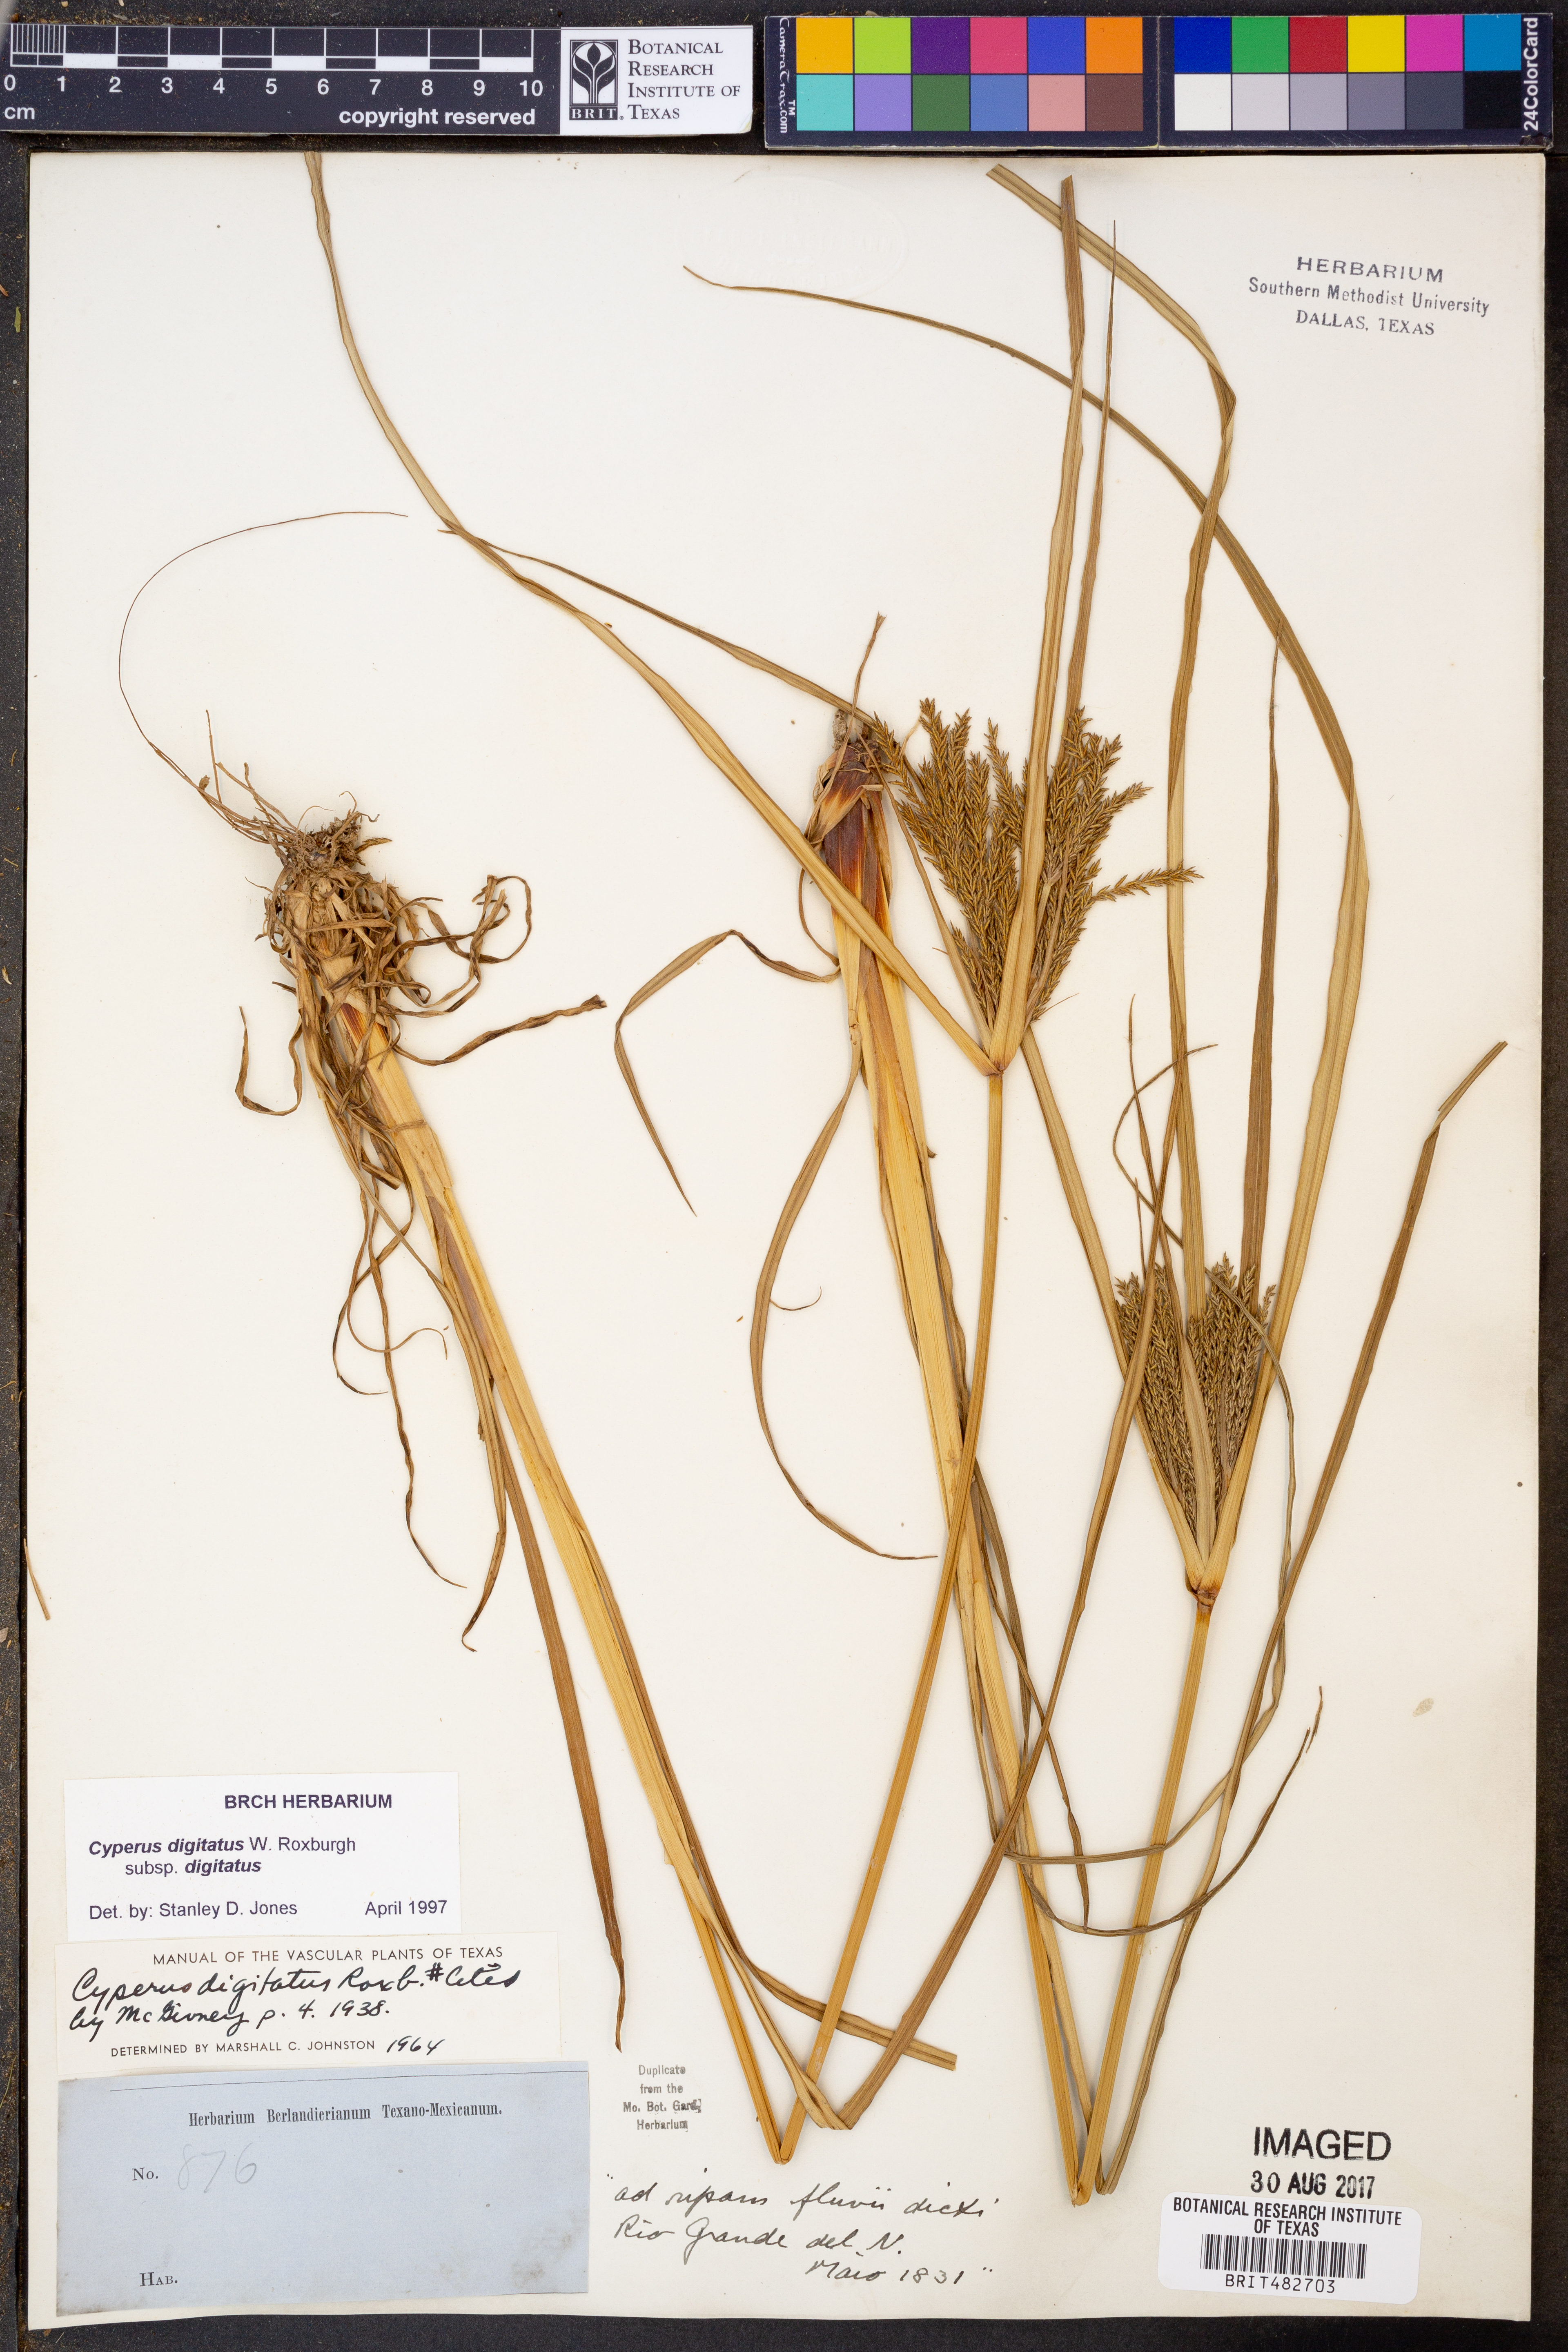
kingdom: Plantae
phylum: Tracheophyta
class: Liliopsida
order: Poales
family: Cyperaceae
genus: Cyperus
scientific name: Cyperus digitatus
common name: Finger flatsedge
